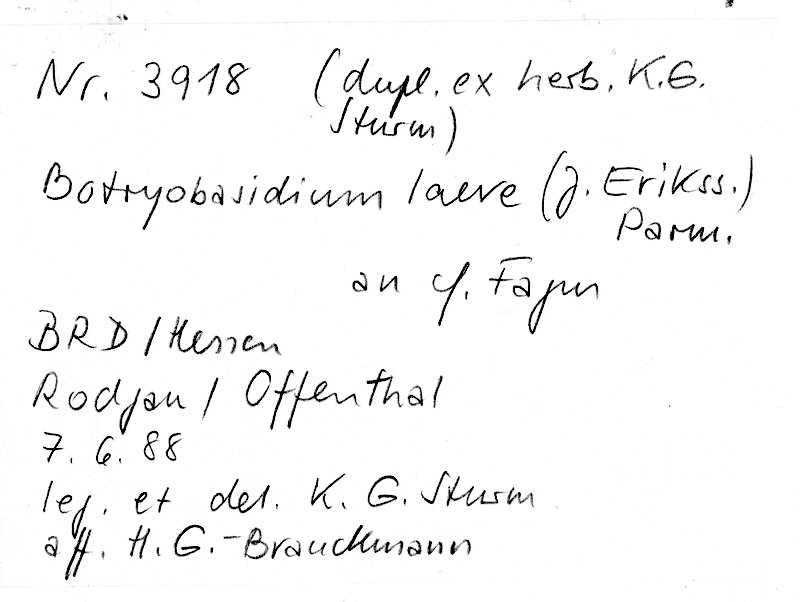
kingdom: Plantae
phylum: Tracheophyta
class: Magnoliopsida
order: Fagales
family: Fagaceae
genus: Fagus
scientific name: Fagus
